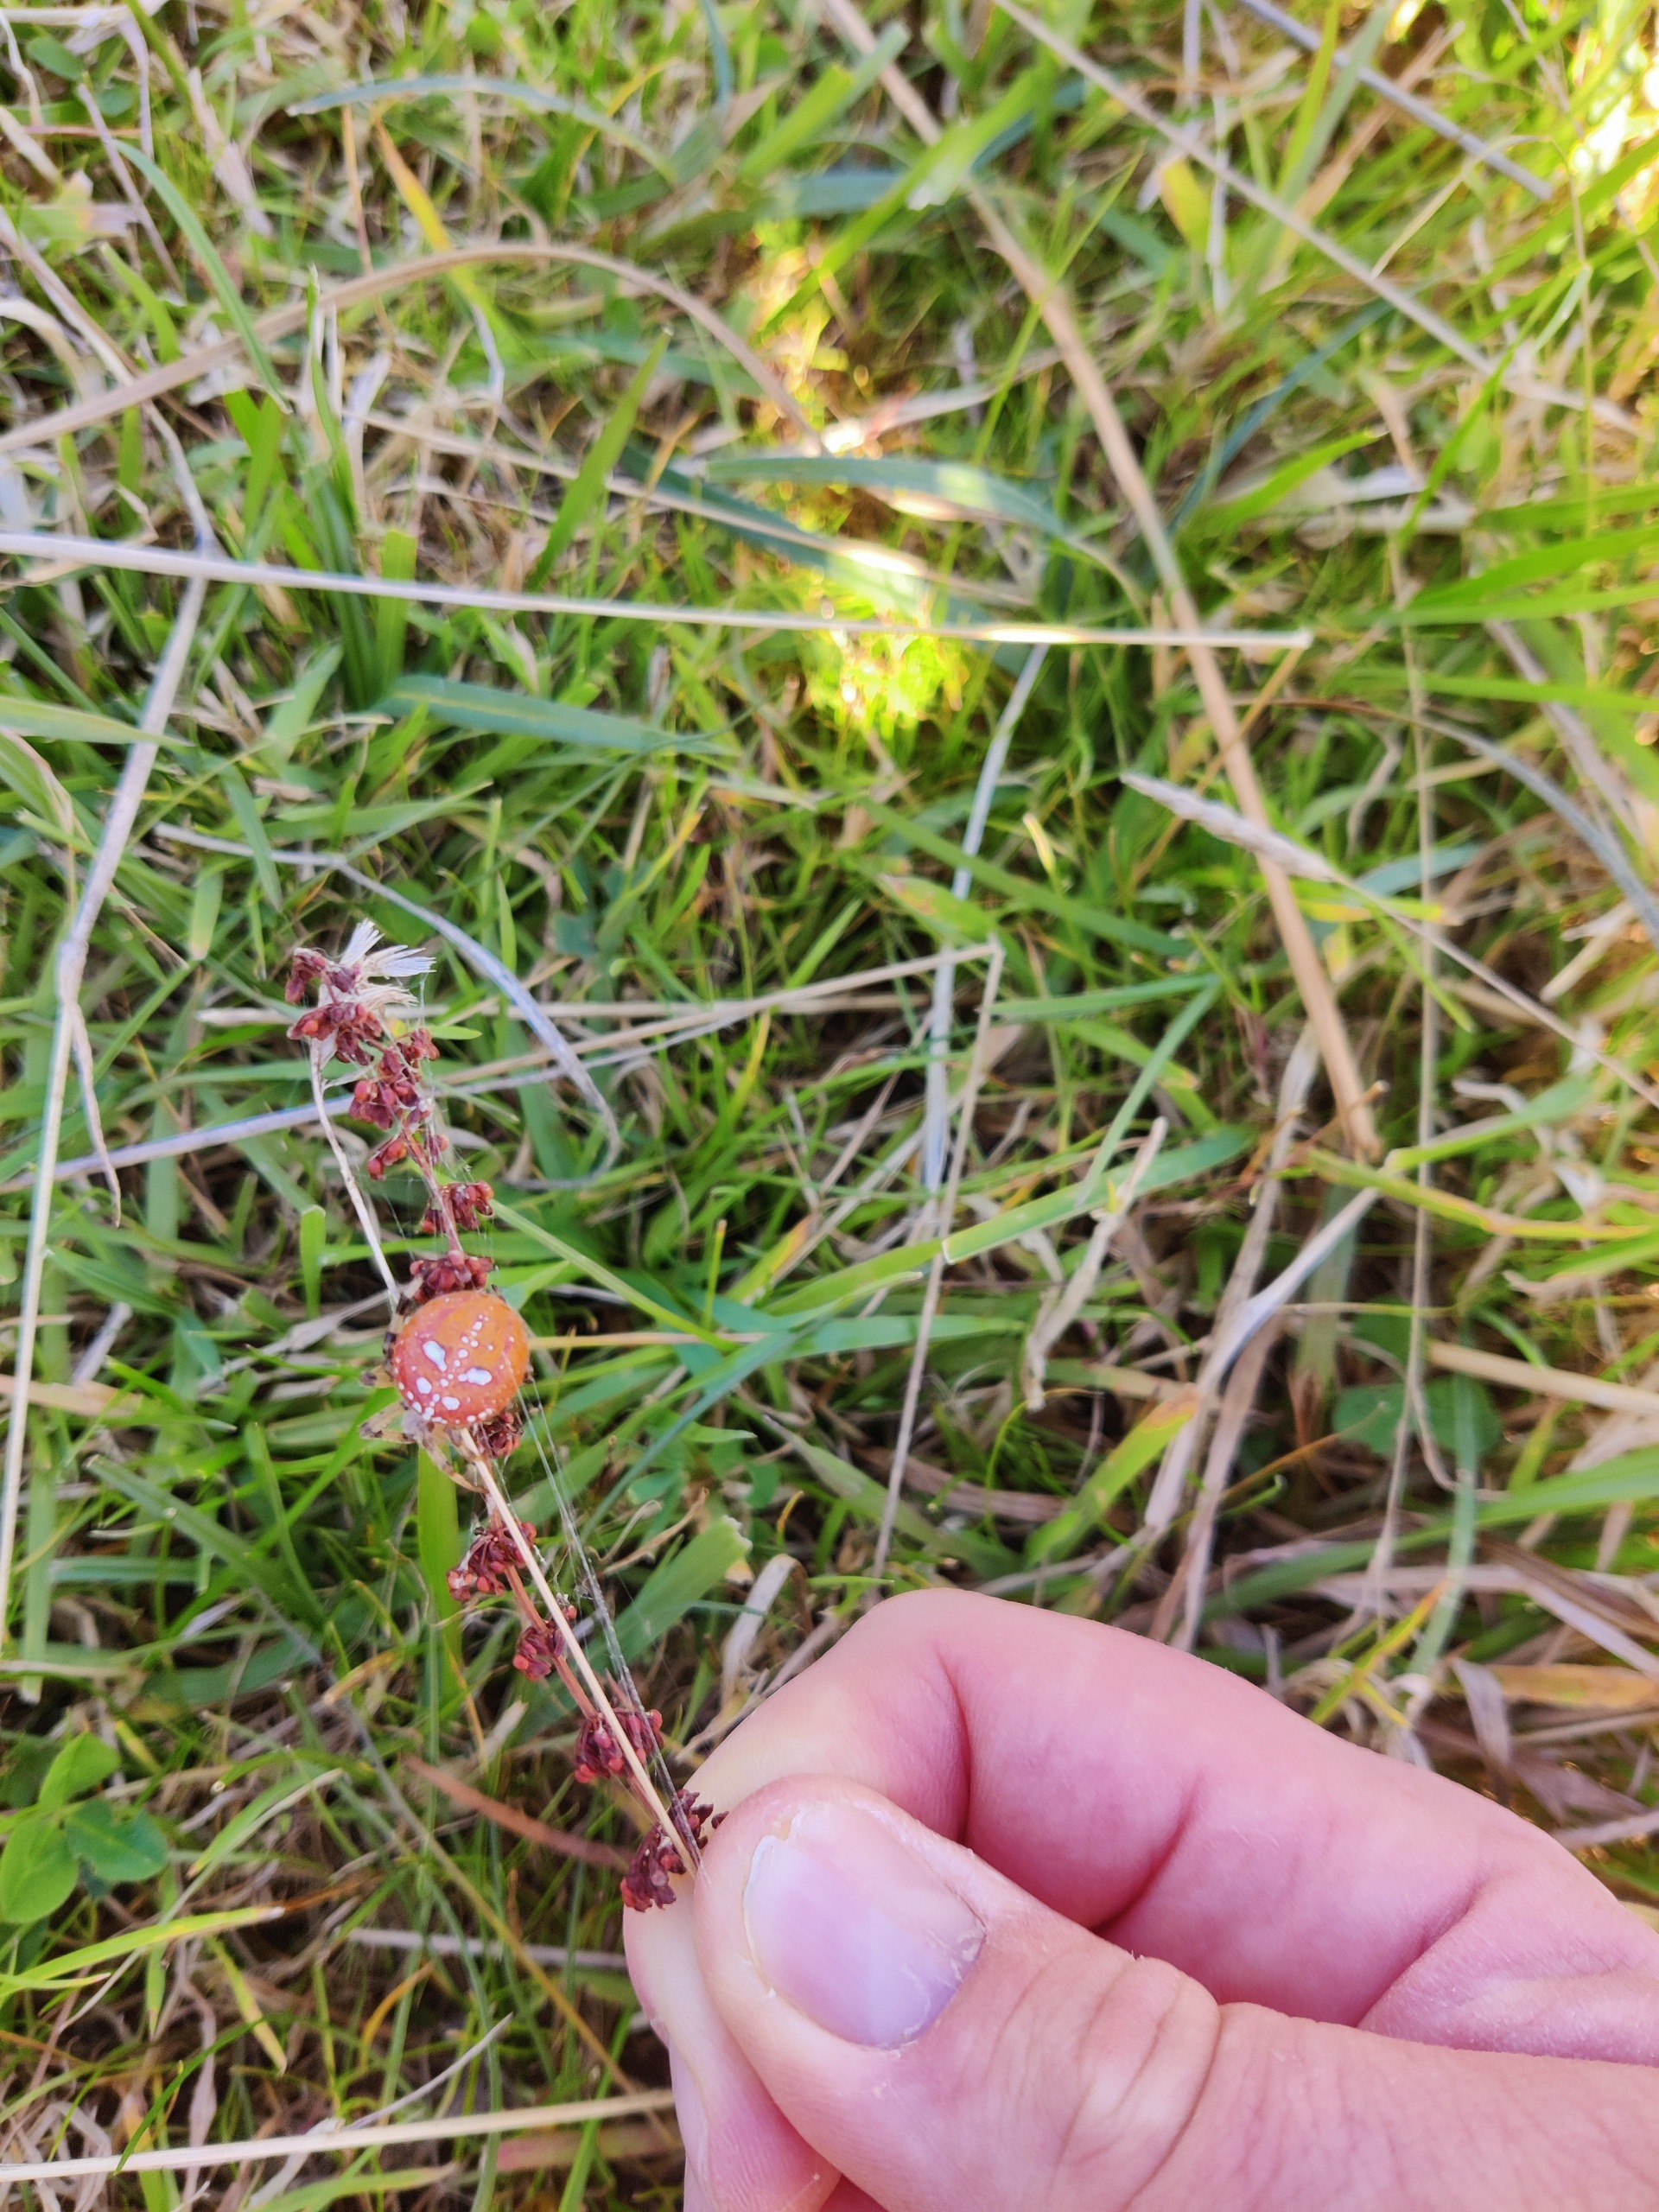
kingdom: Animalia
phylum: Arthropoda
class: Arachnida
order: Araneae
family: Araneidae
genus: Araneus
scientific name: Araneus quadratus
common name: Kvadratedderkop
